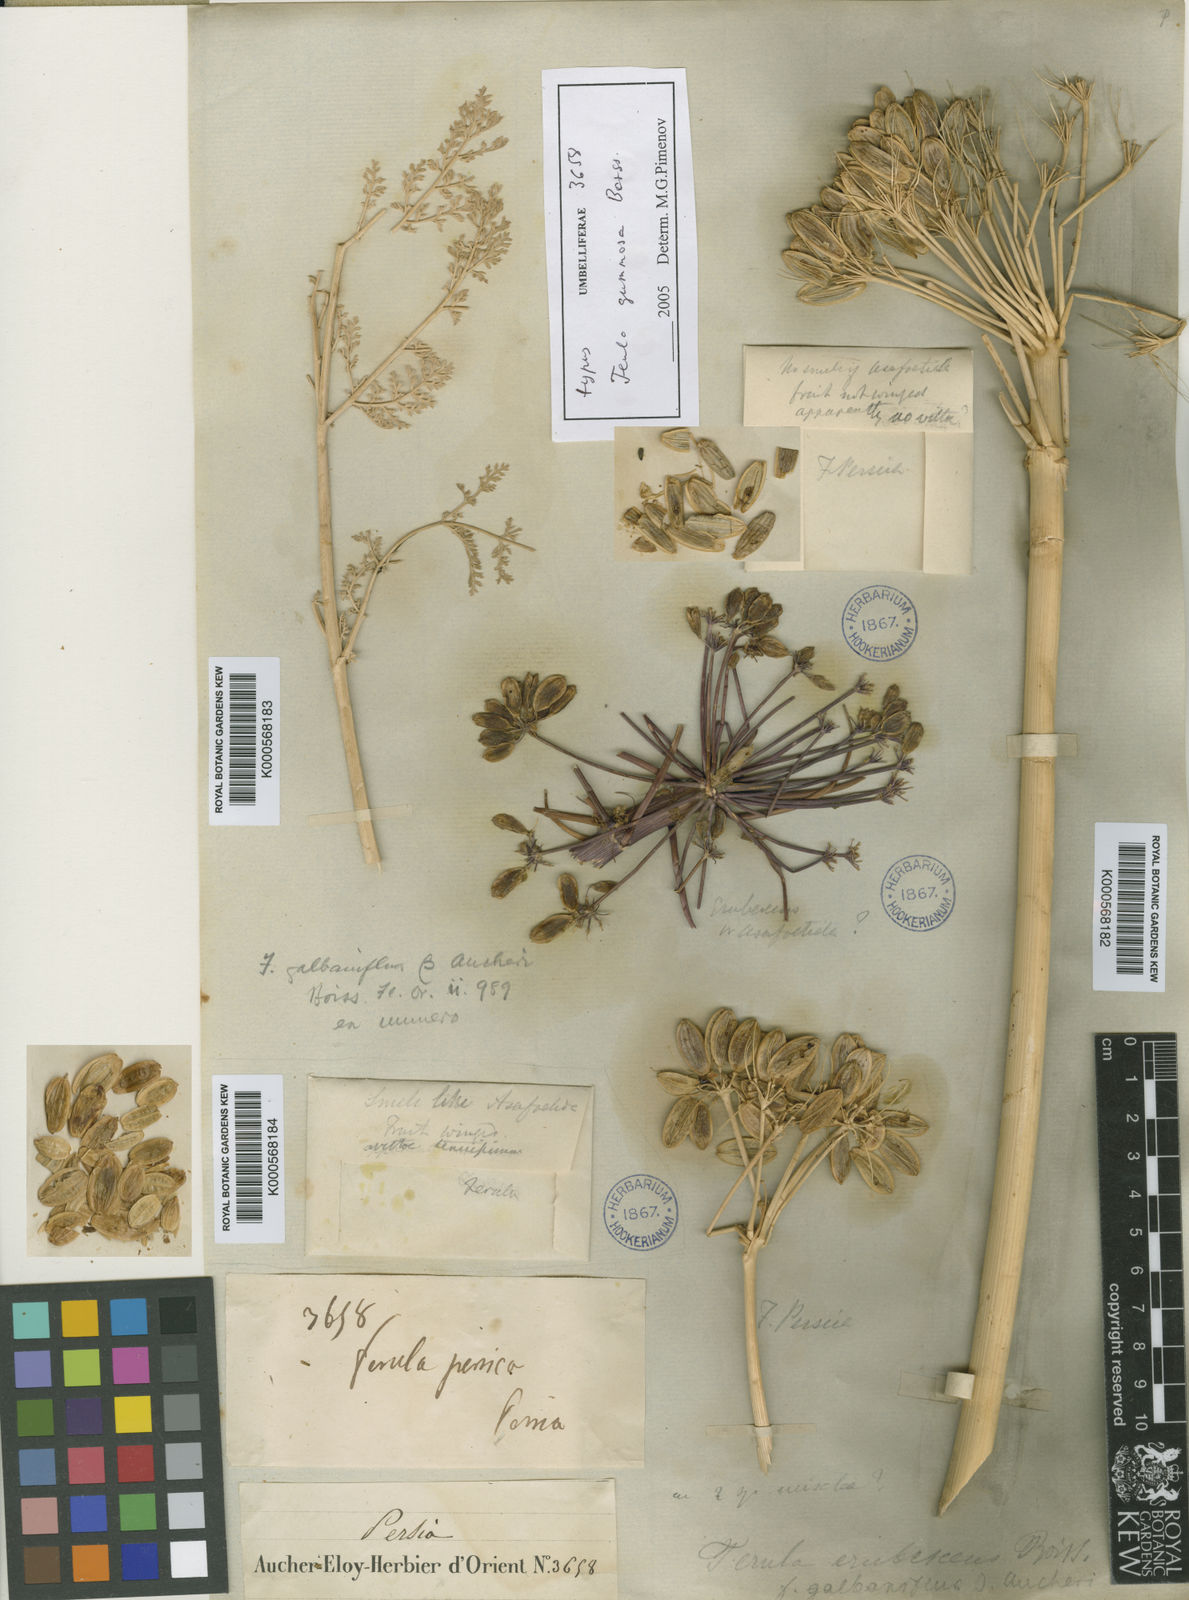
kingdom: Plantae
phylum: Tracheophyta
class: Magnoliopsida
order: Apiales
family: Apiaceae
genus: Ferula
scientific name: Ferula gummosa
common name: Galbanum
